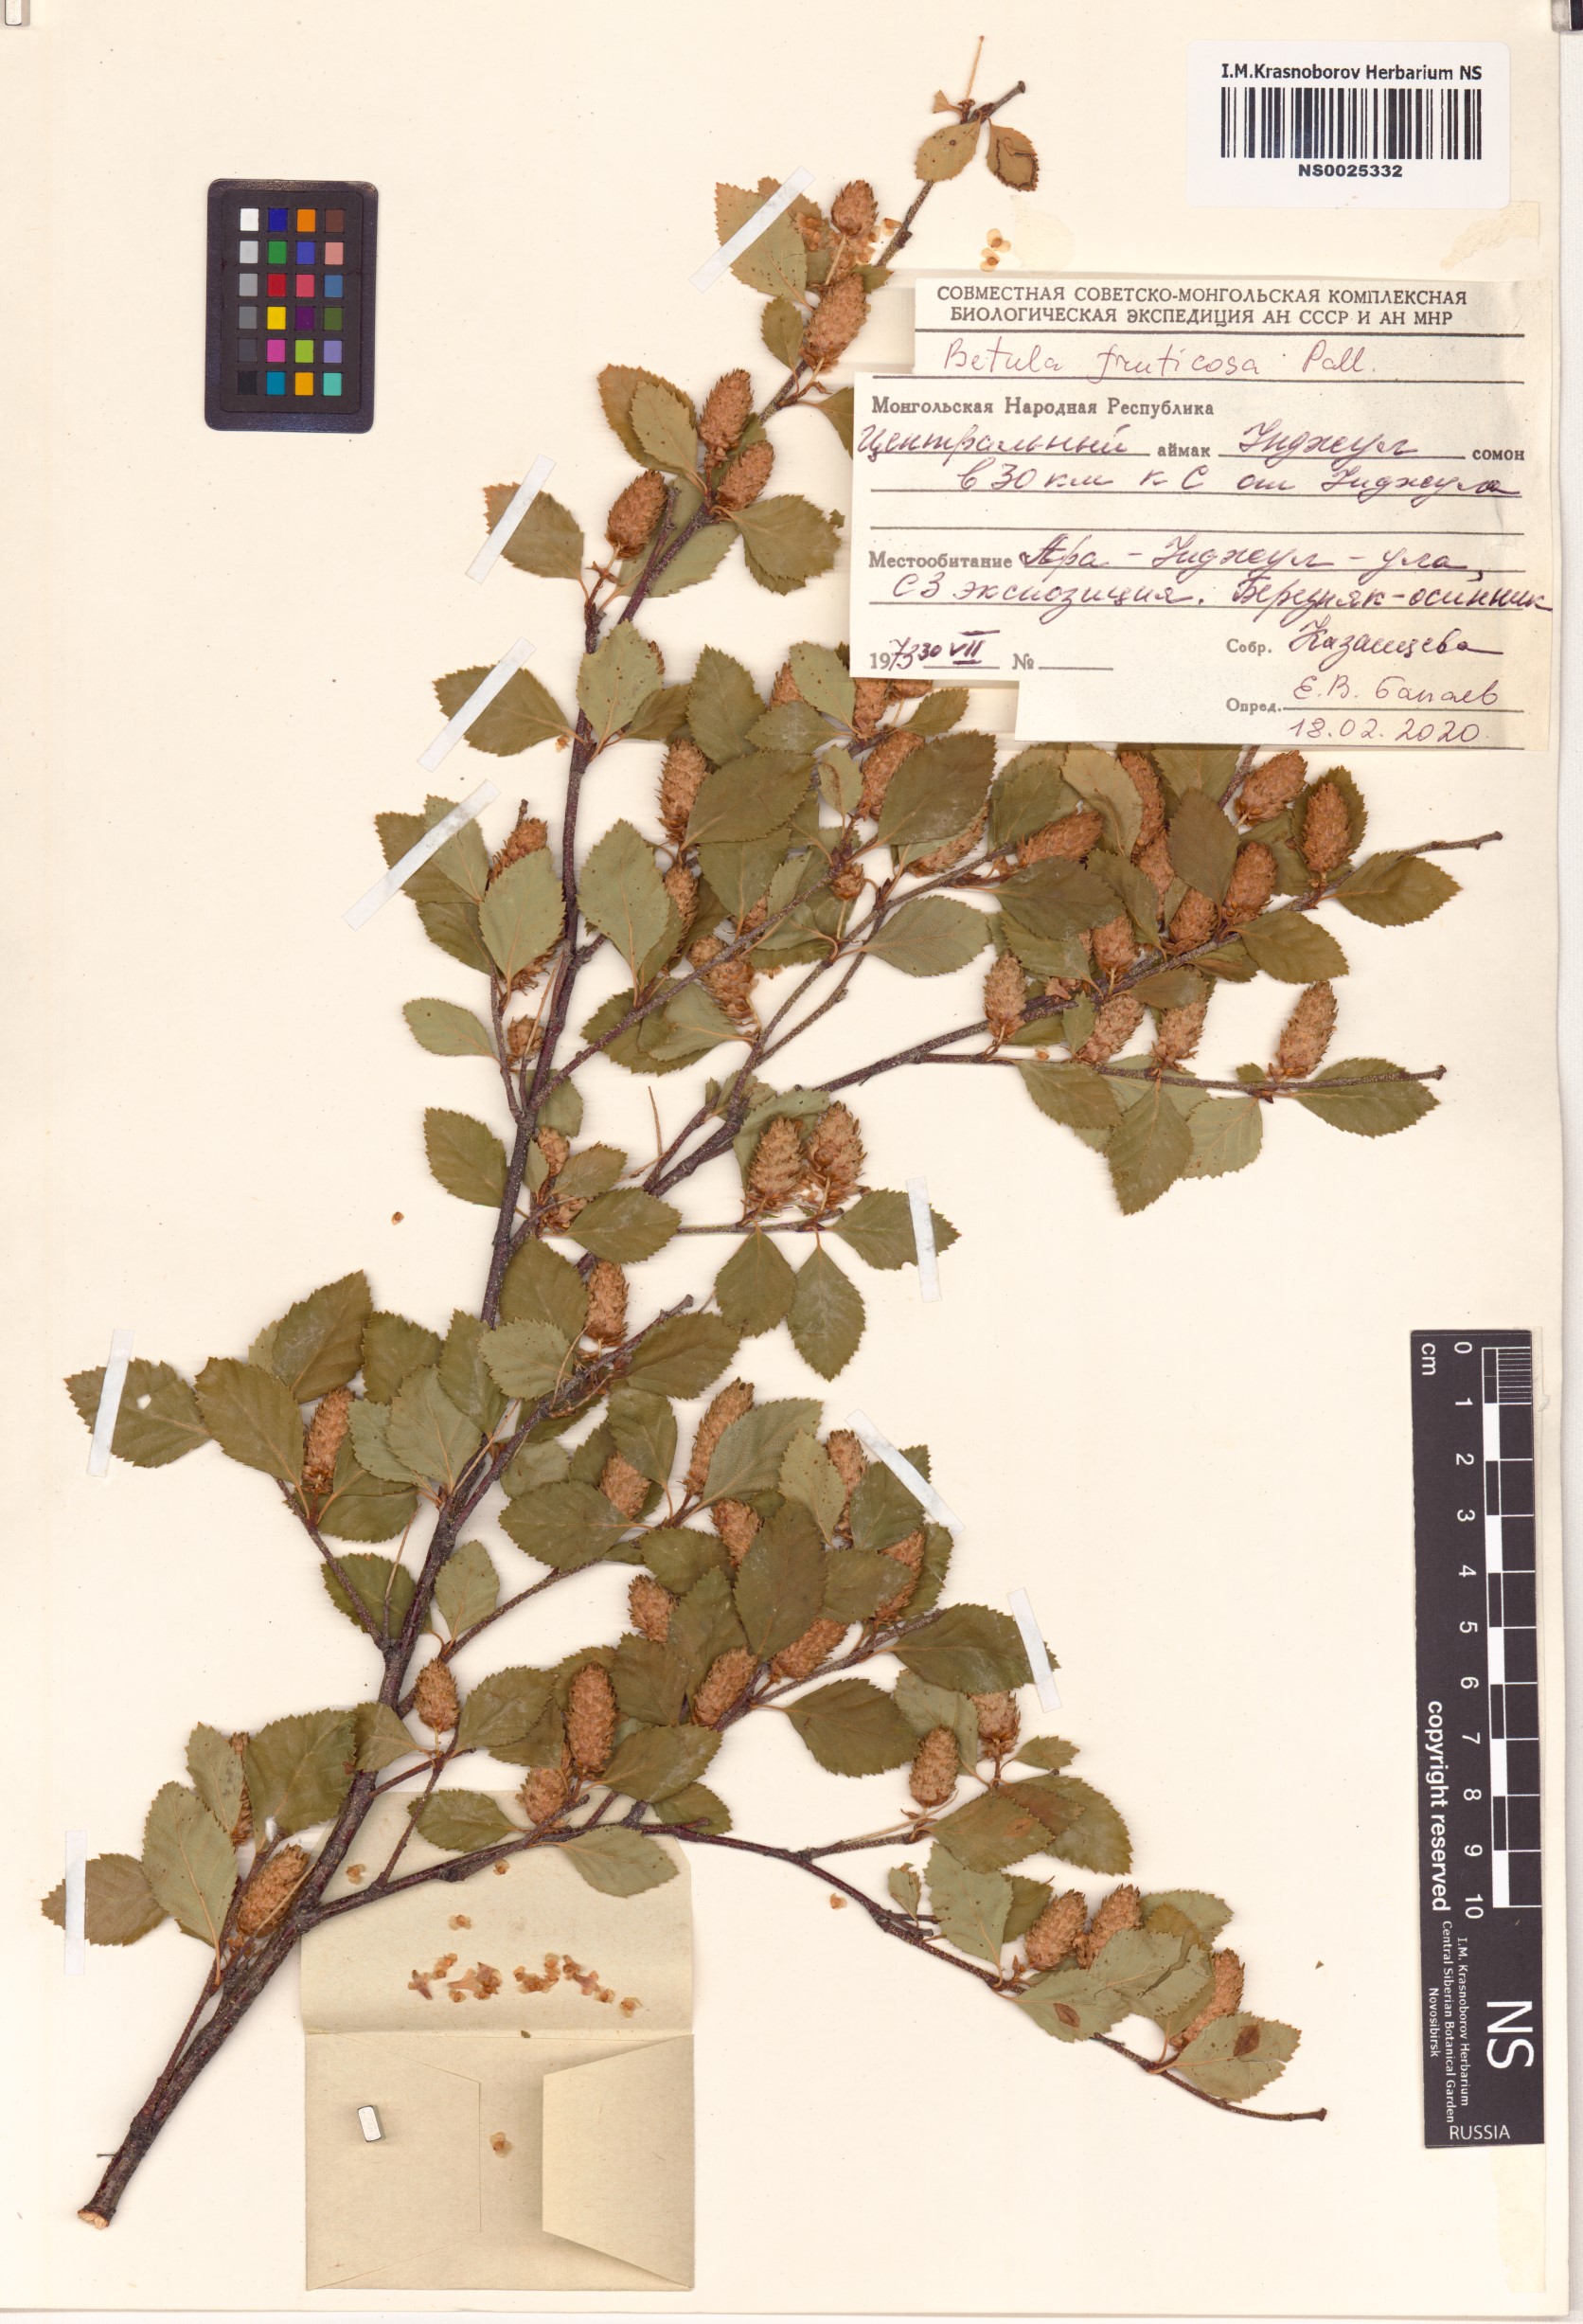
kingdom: Plantae
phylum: Tracheophyta
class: Magnoliopsida
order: Fagales
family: Betulaceae
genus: Betula
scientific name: Betula fruticosa
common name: Japanese bog birch
